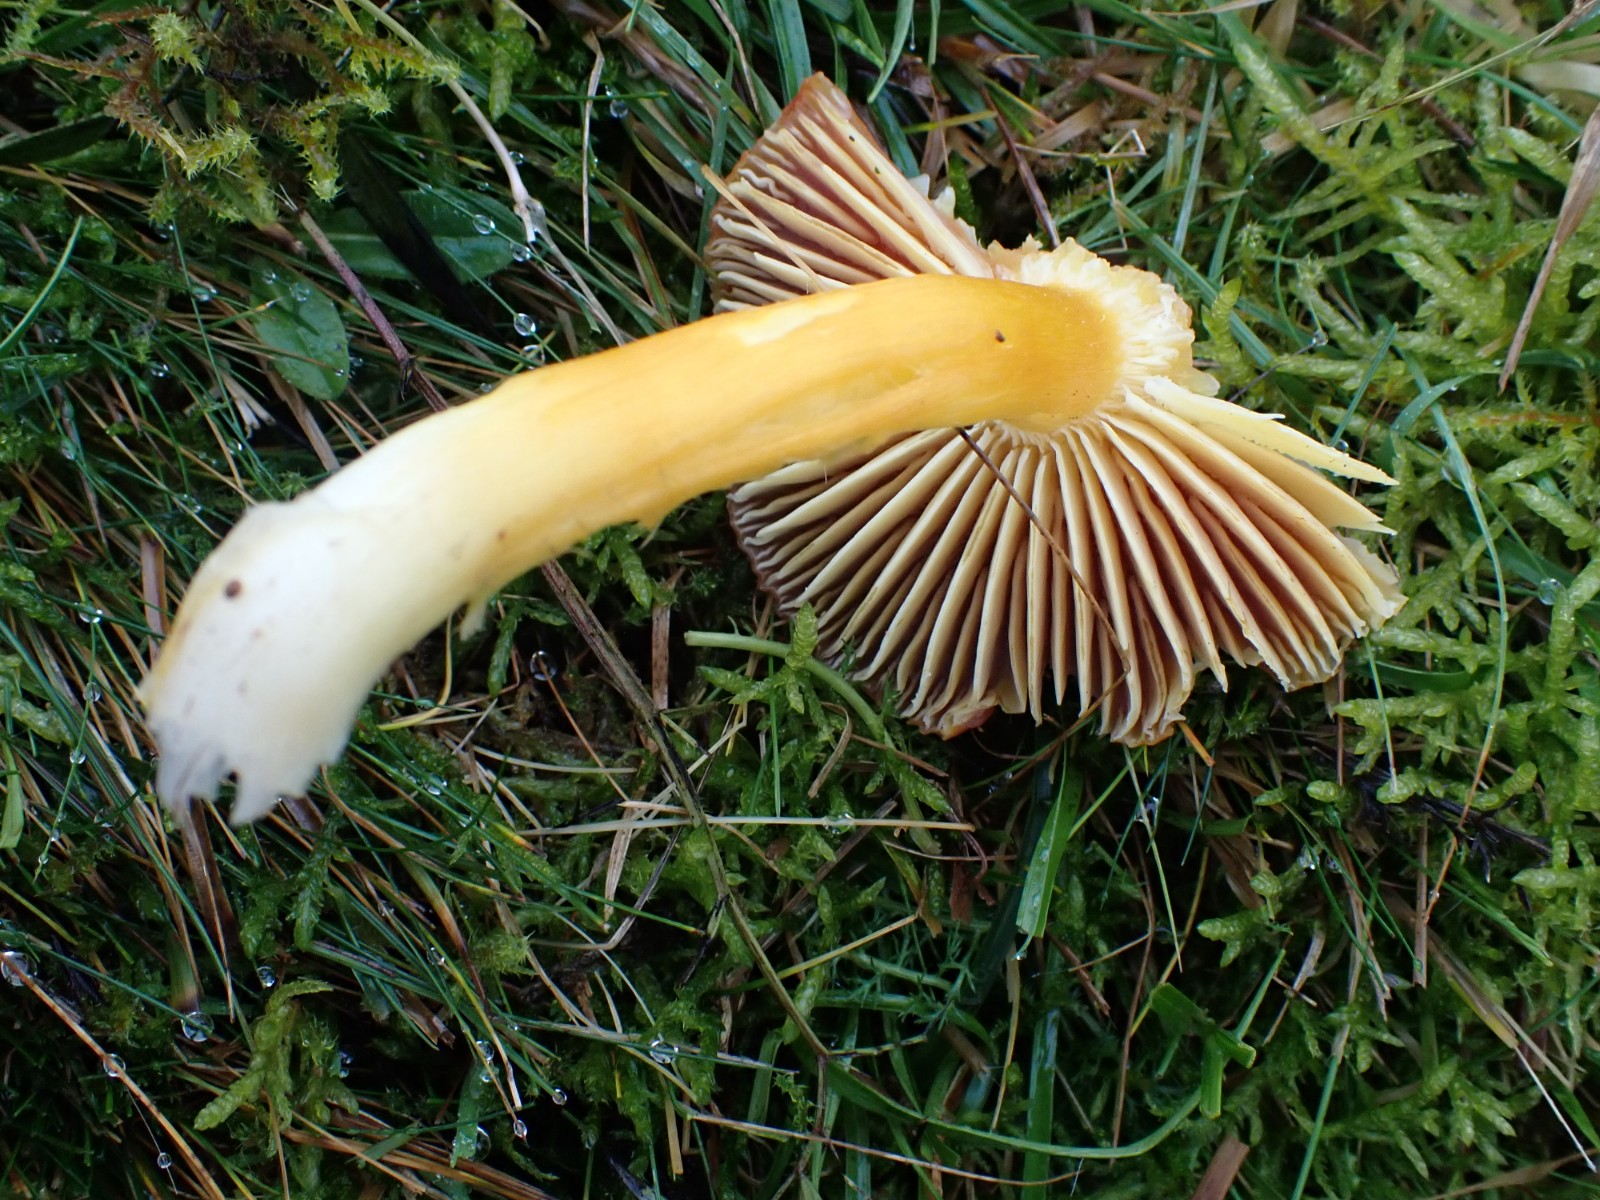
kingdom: Fungi
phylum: Basidiomycota
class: Agaricomycetes
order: Agaricales
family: Hygrophoraceae
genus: Hygrocybe
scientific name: Hygrocybe punicea
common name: skarlagen-vokshat
